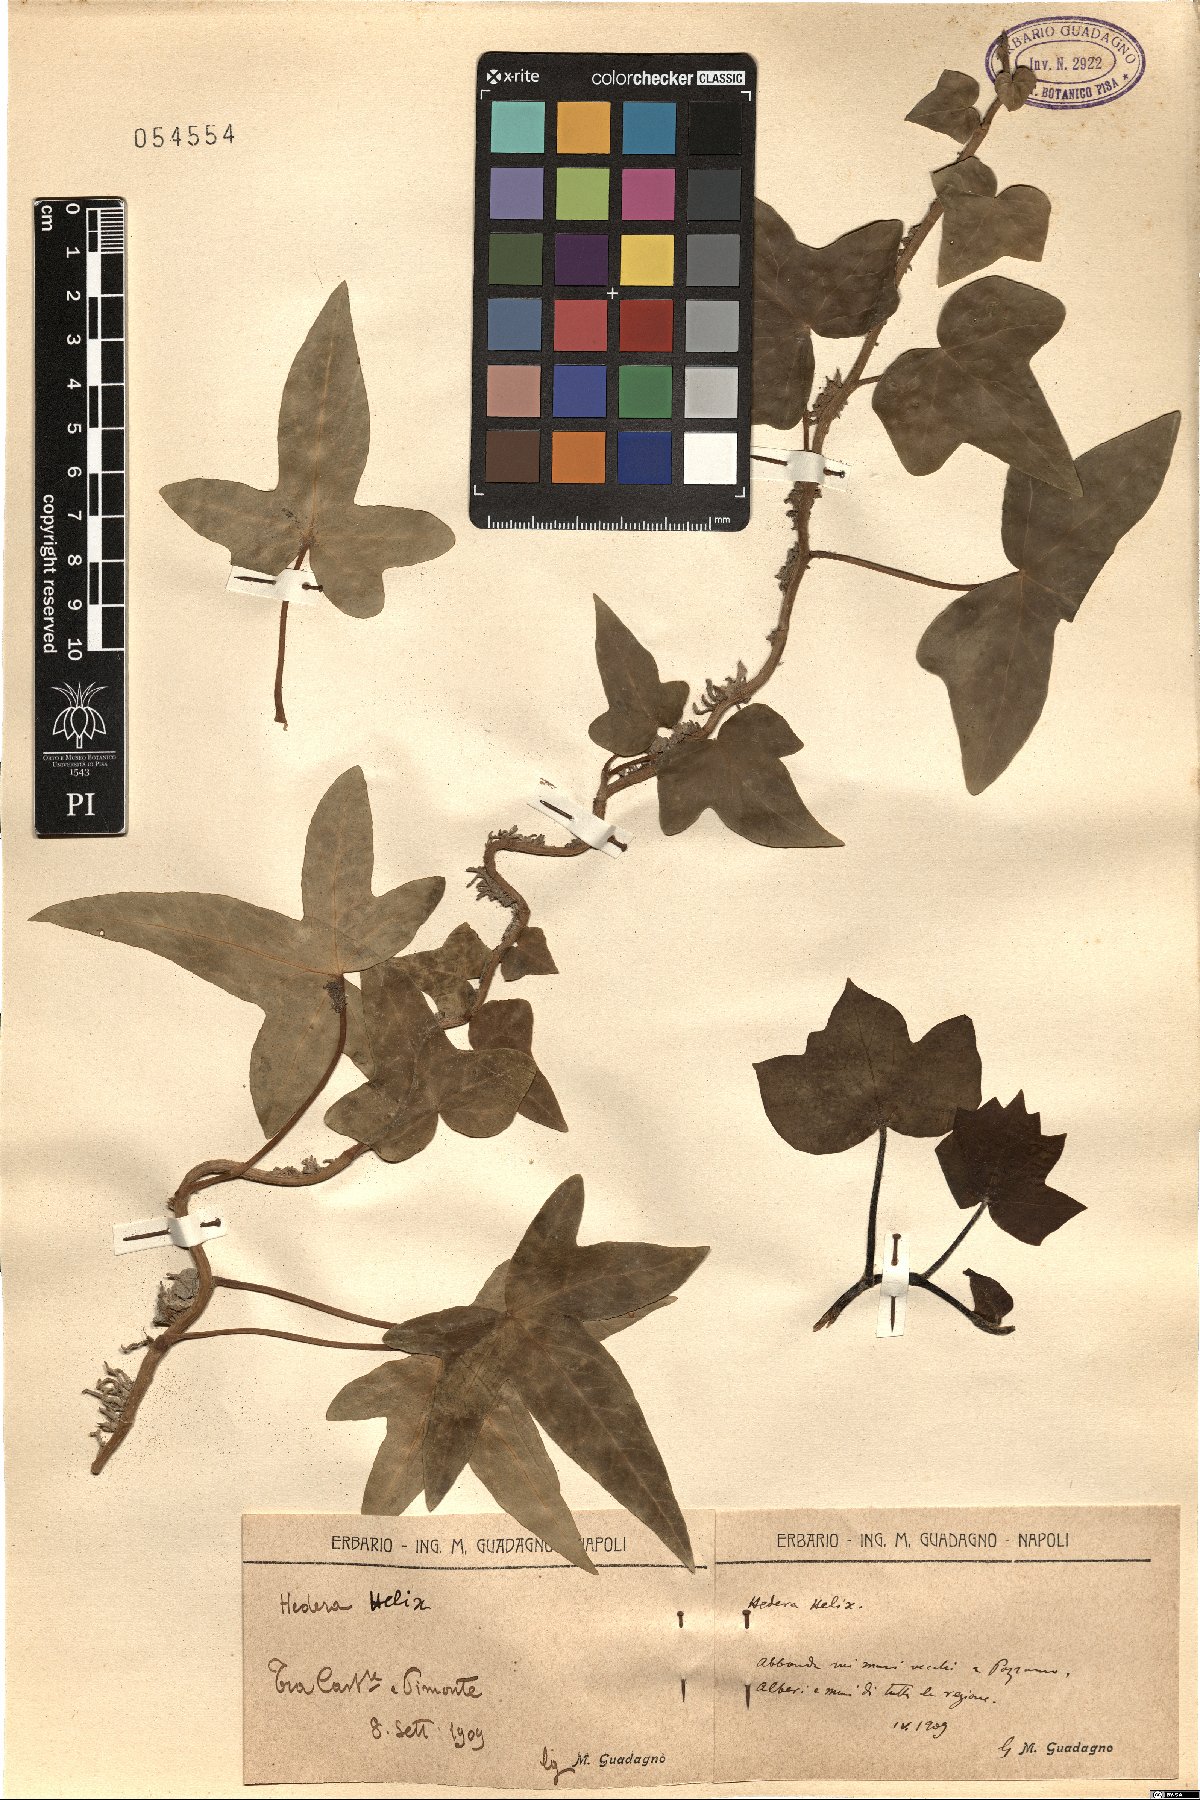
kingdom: Plantae
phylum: Tracheophyta
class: Magnoliopsida
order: Apiales
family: Araliaceae
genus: Hedera
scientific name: Hedera helix
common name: Ivy
